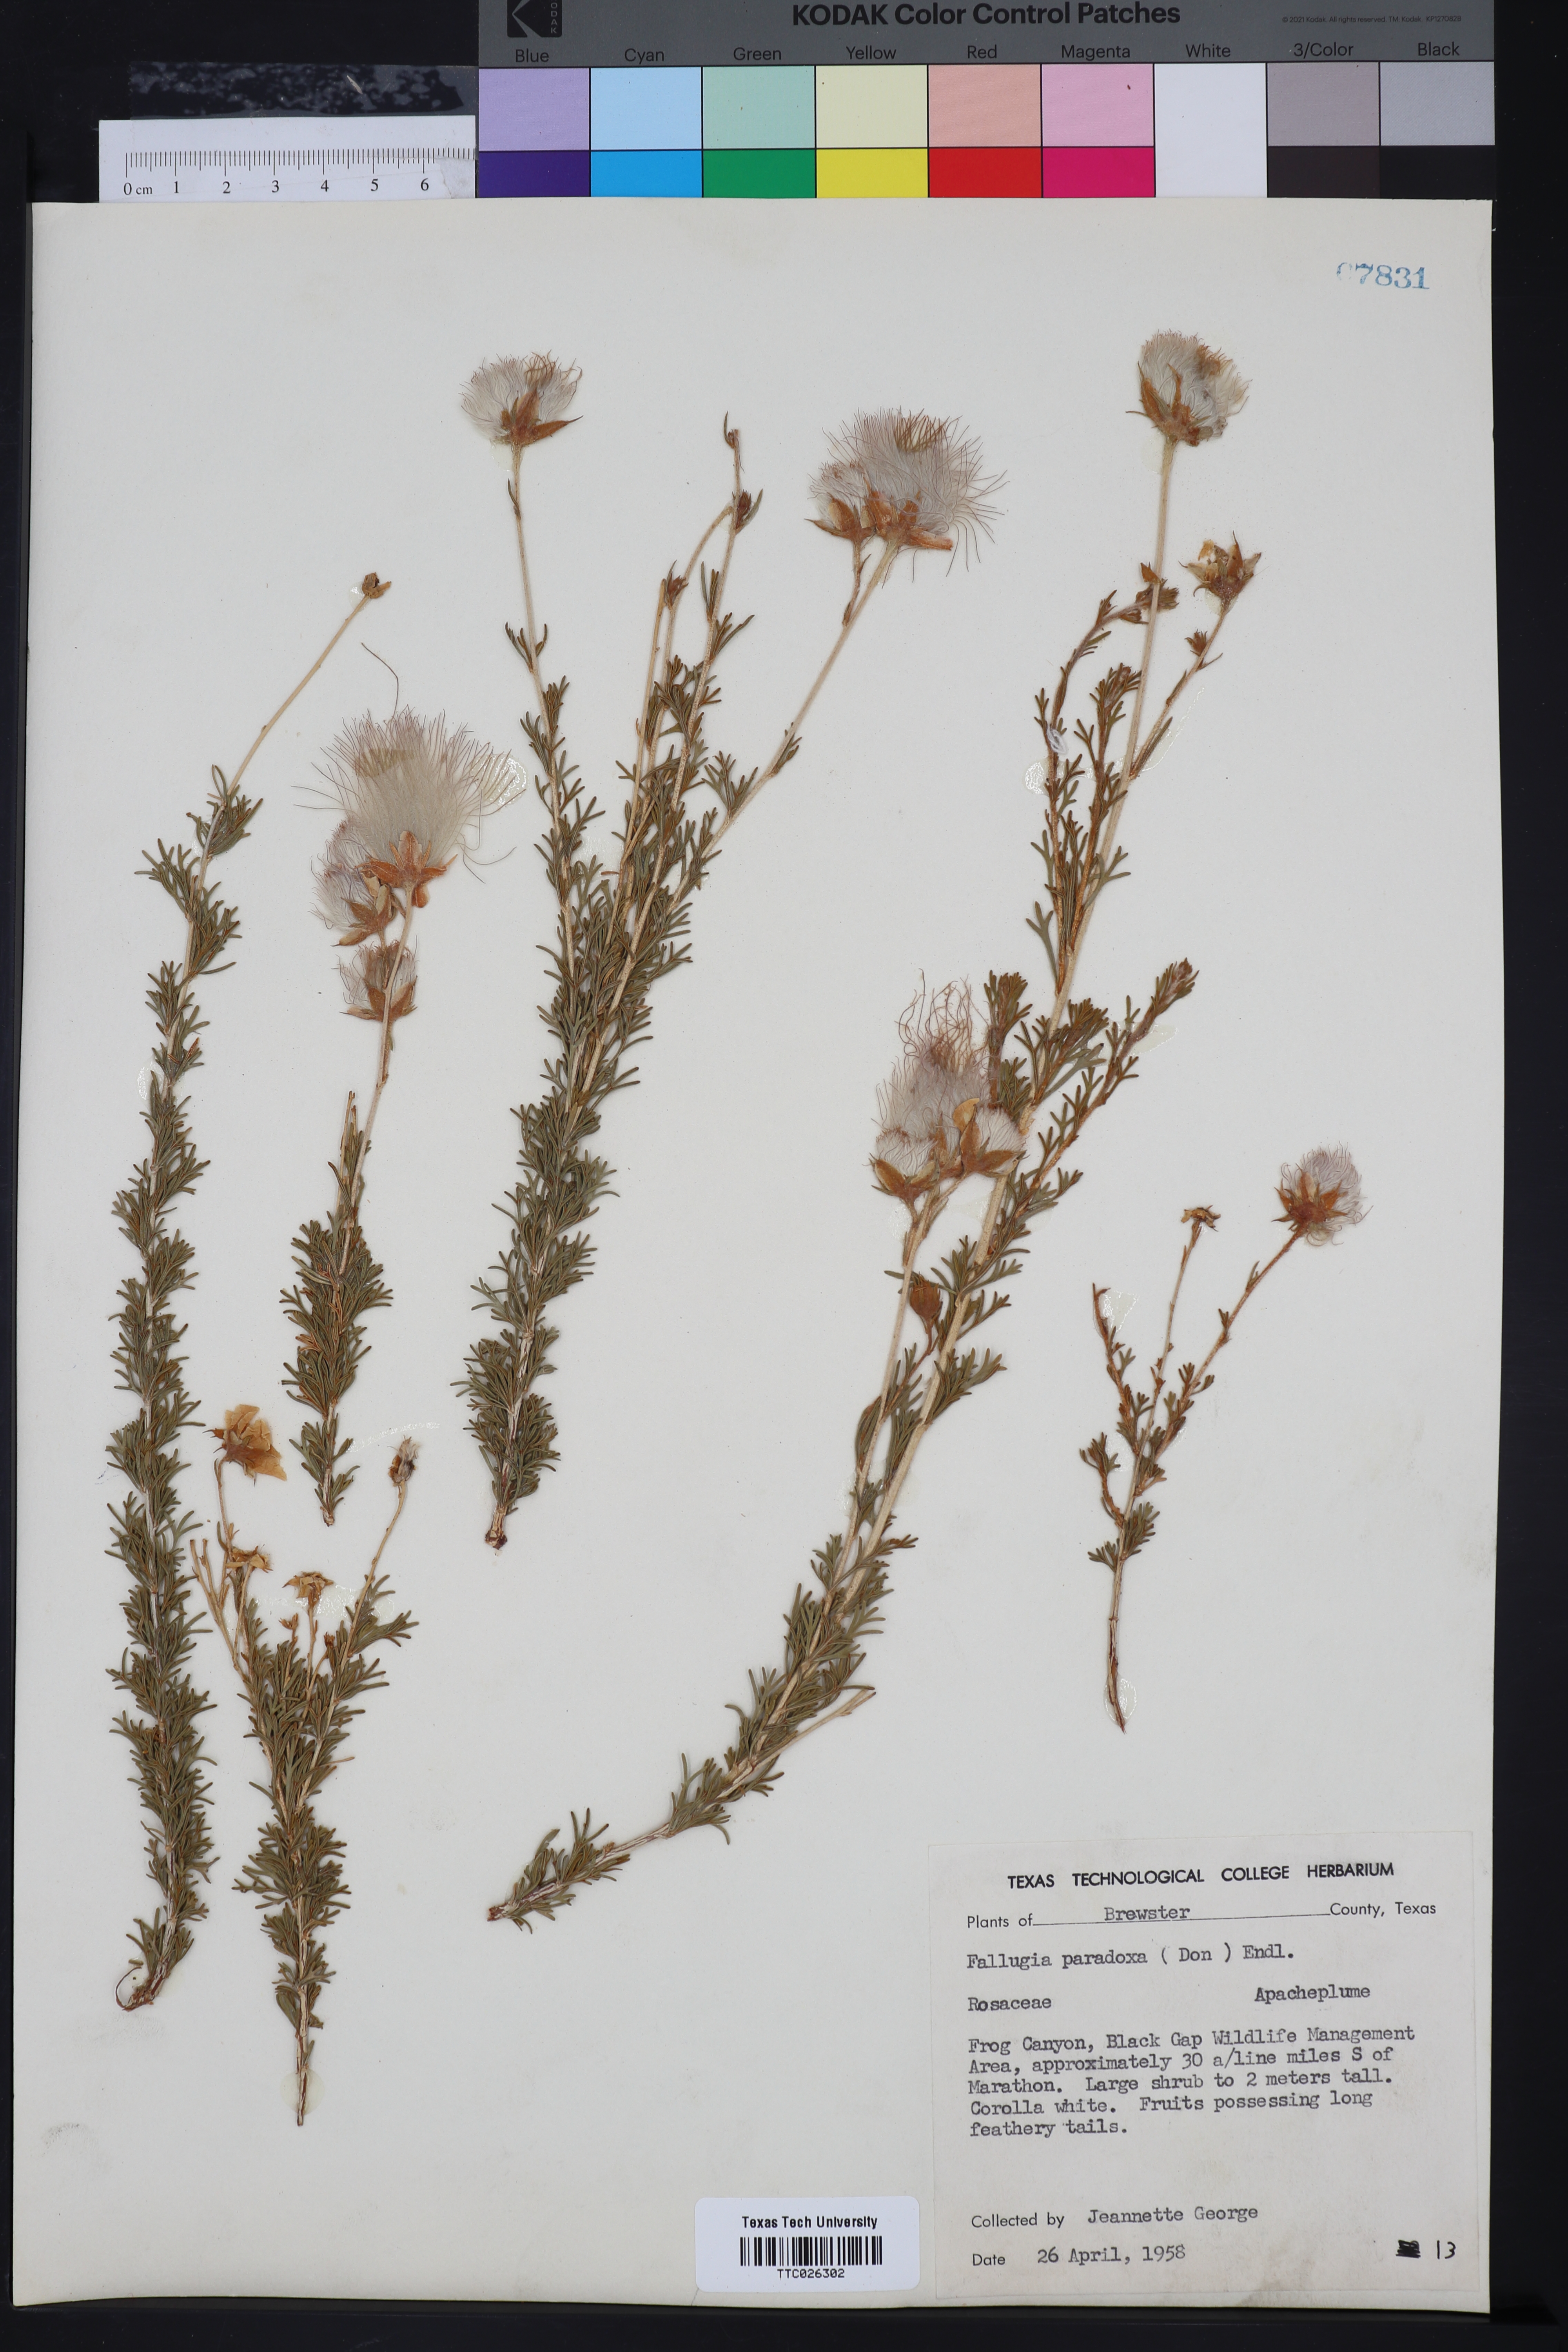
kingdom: Plantae
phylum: Tracheophyta
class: Magnoliopsida
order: Rosales
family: Rosaceae
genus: Fallugia
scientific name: Fallugia paradoxa
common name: Apache-plume
